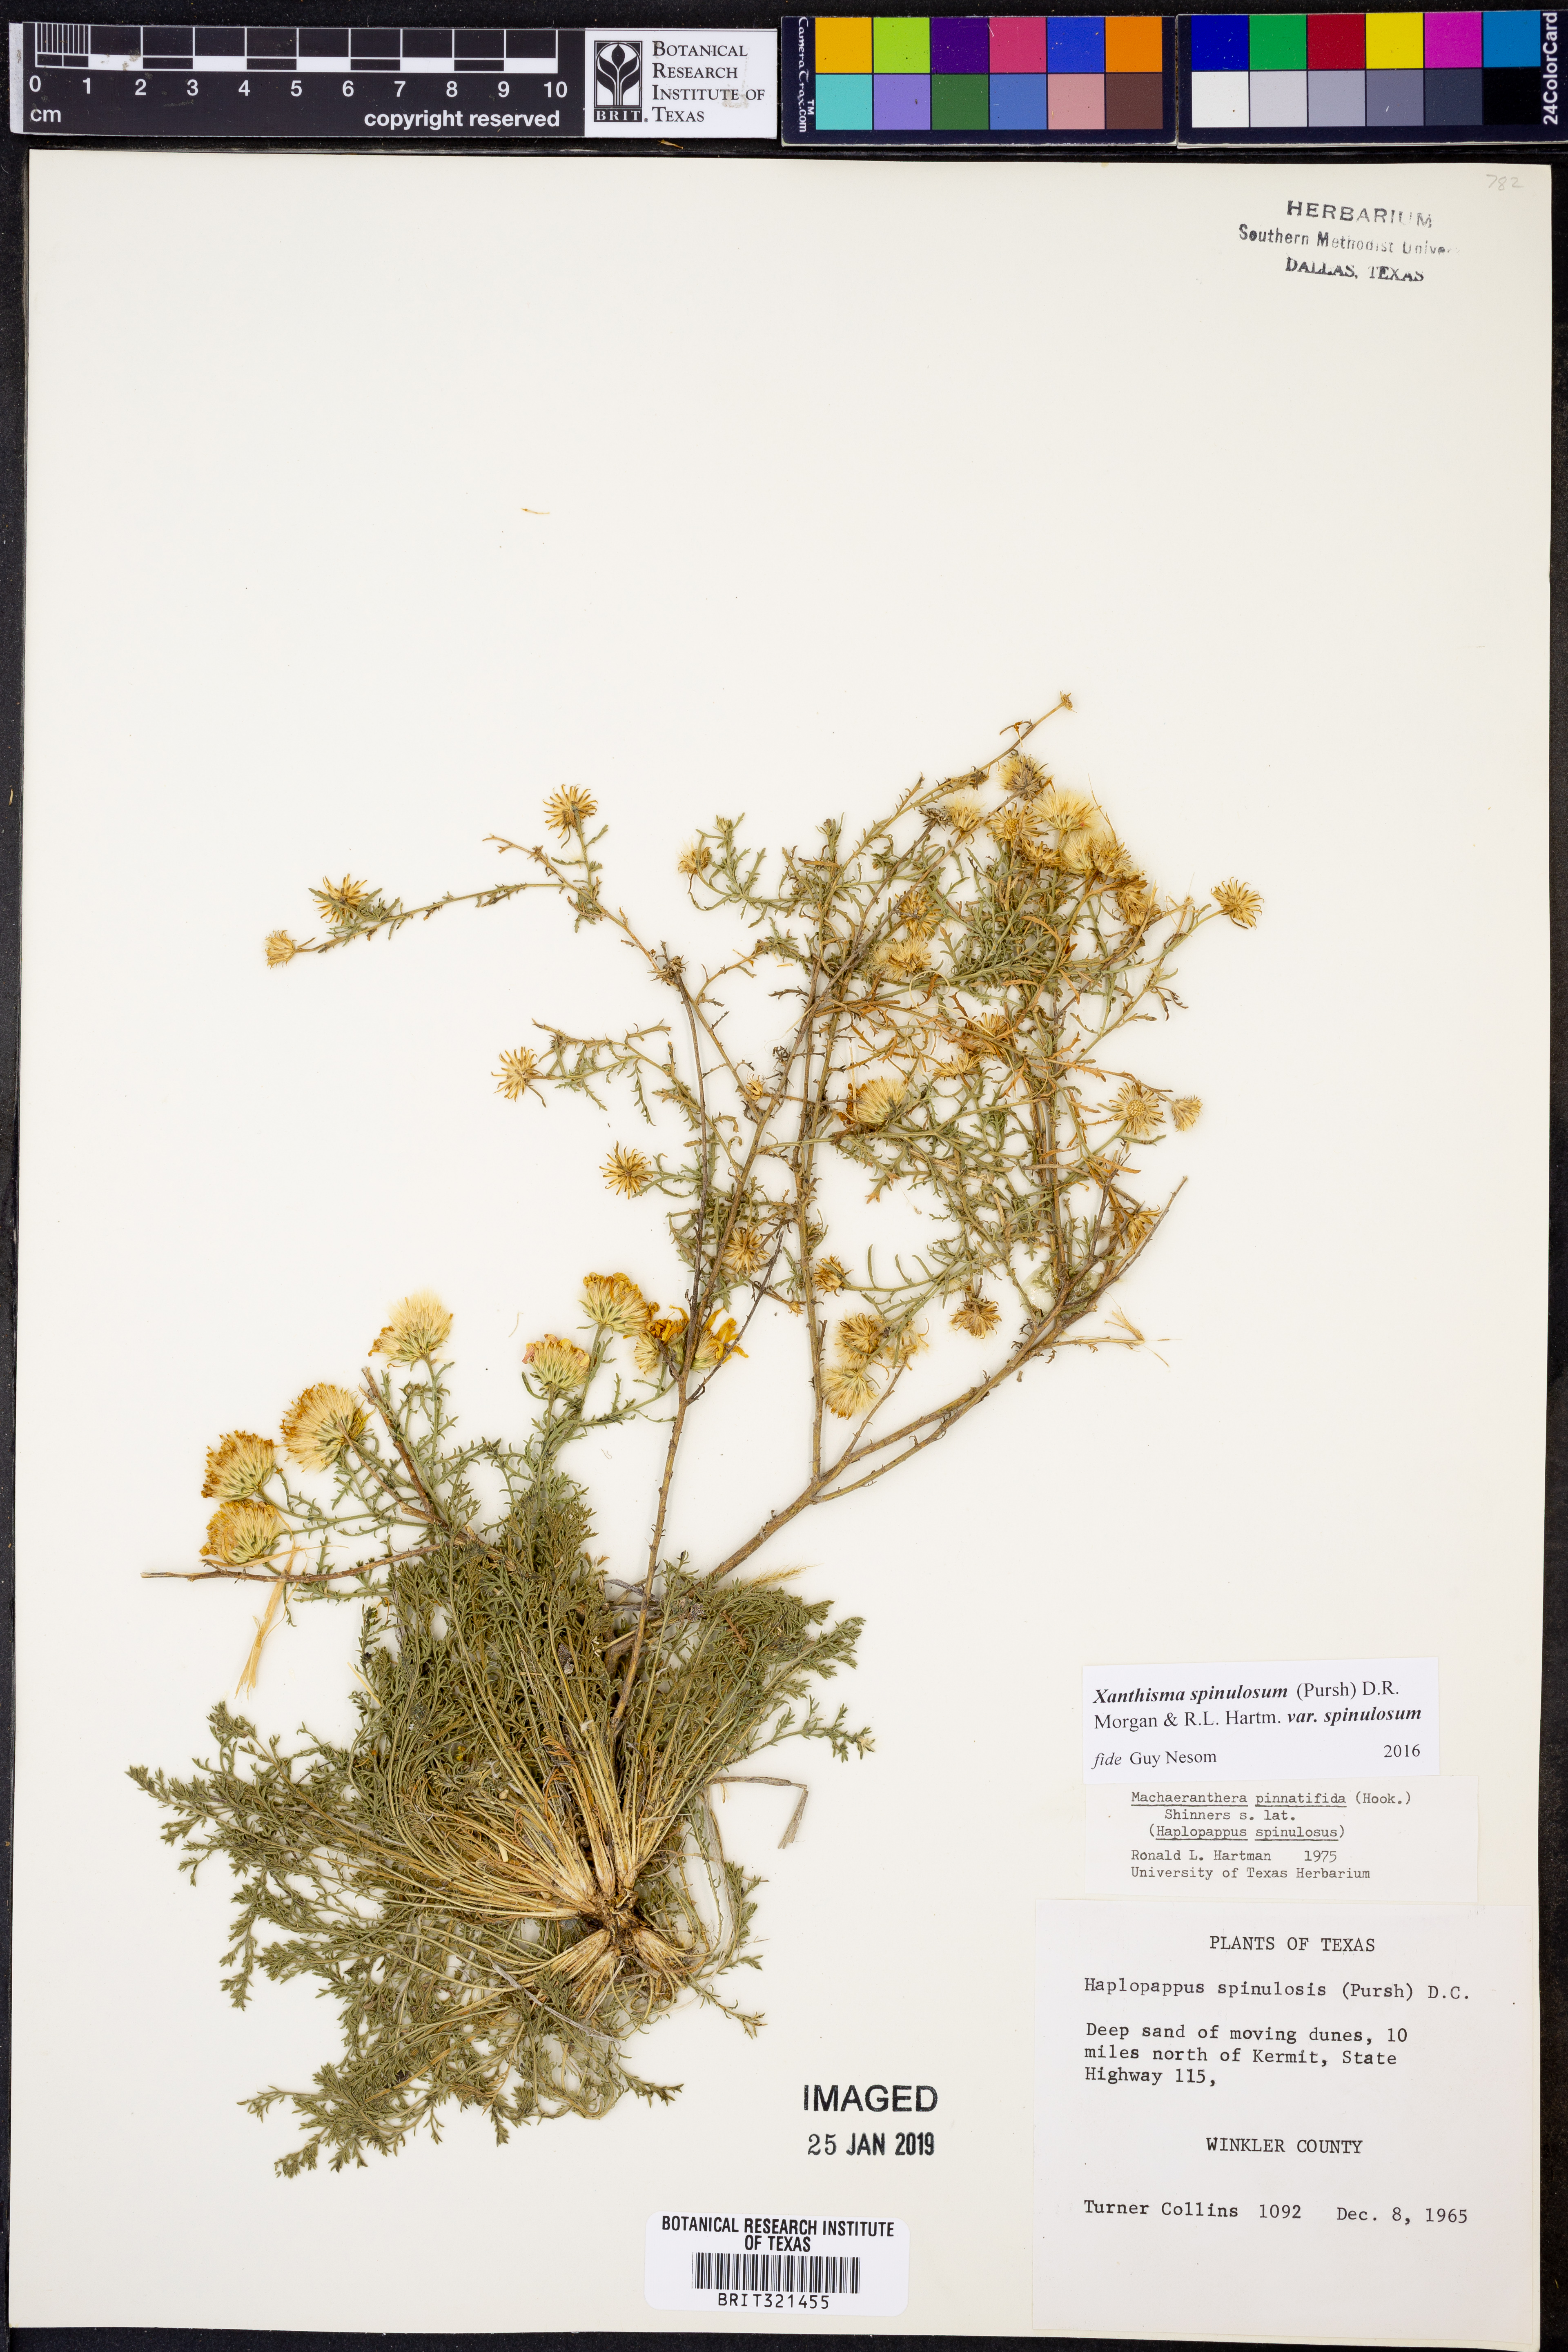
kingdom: Plantae
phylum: Tracheophyta
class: Magnoliopsida
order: Asterales
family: Asteraceae
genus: Xanthisma
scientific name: Xanthisma spinulosum
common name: Spiny goldenweed
